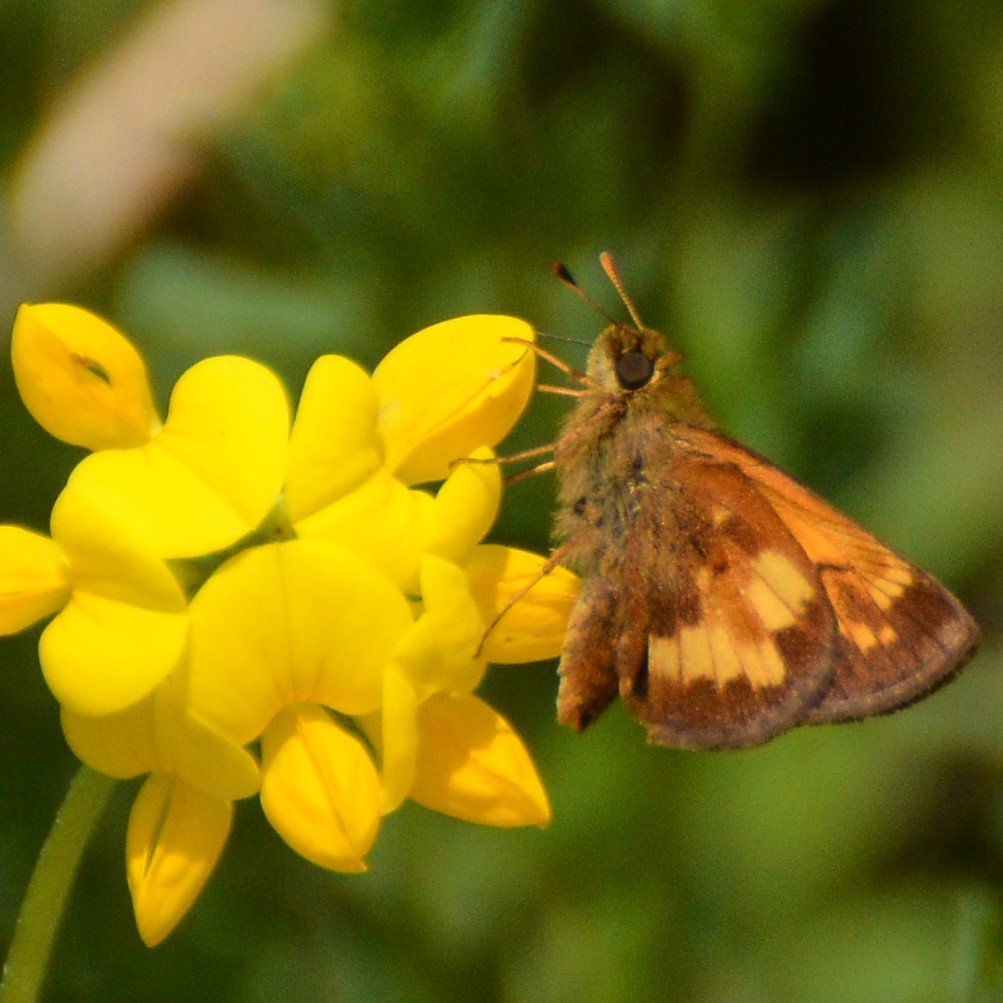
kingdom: Animalia
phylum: Arthropoda
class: Insecta
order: Lepidoptera
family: Hesperiidae
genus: Lon
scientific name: Lon hobomok
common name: Hobomok Skipper
